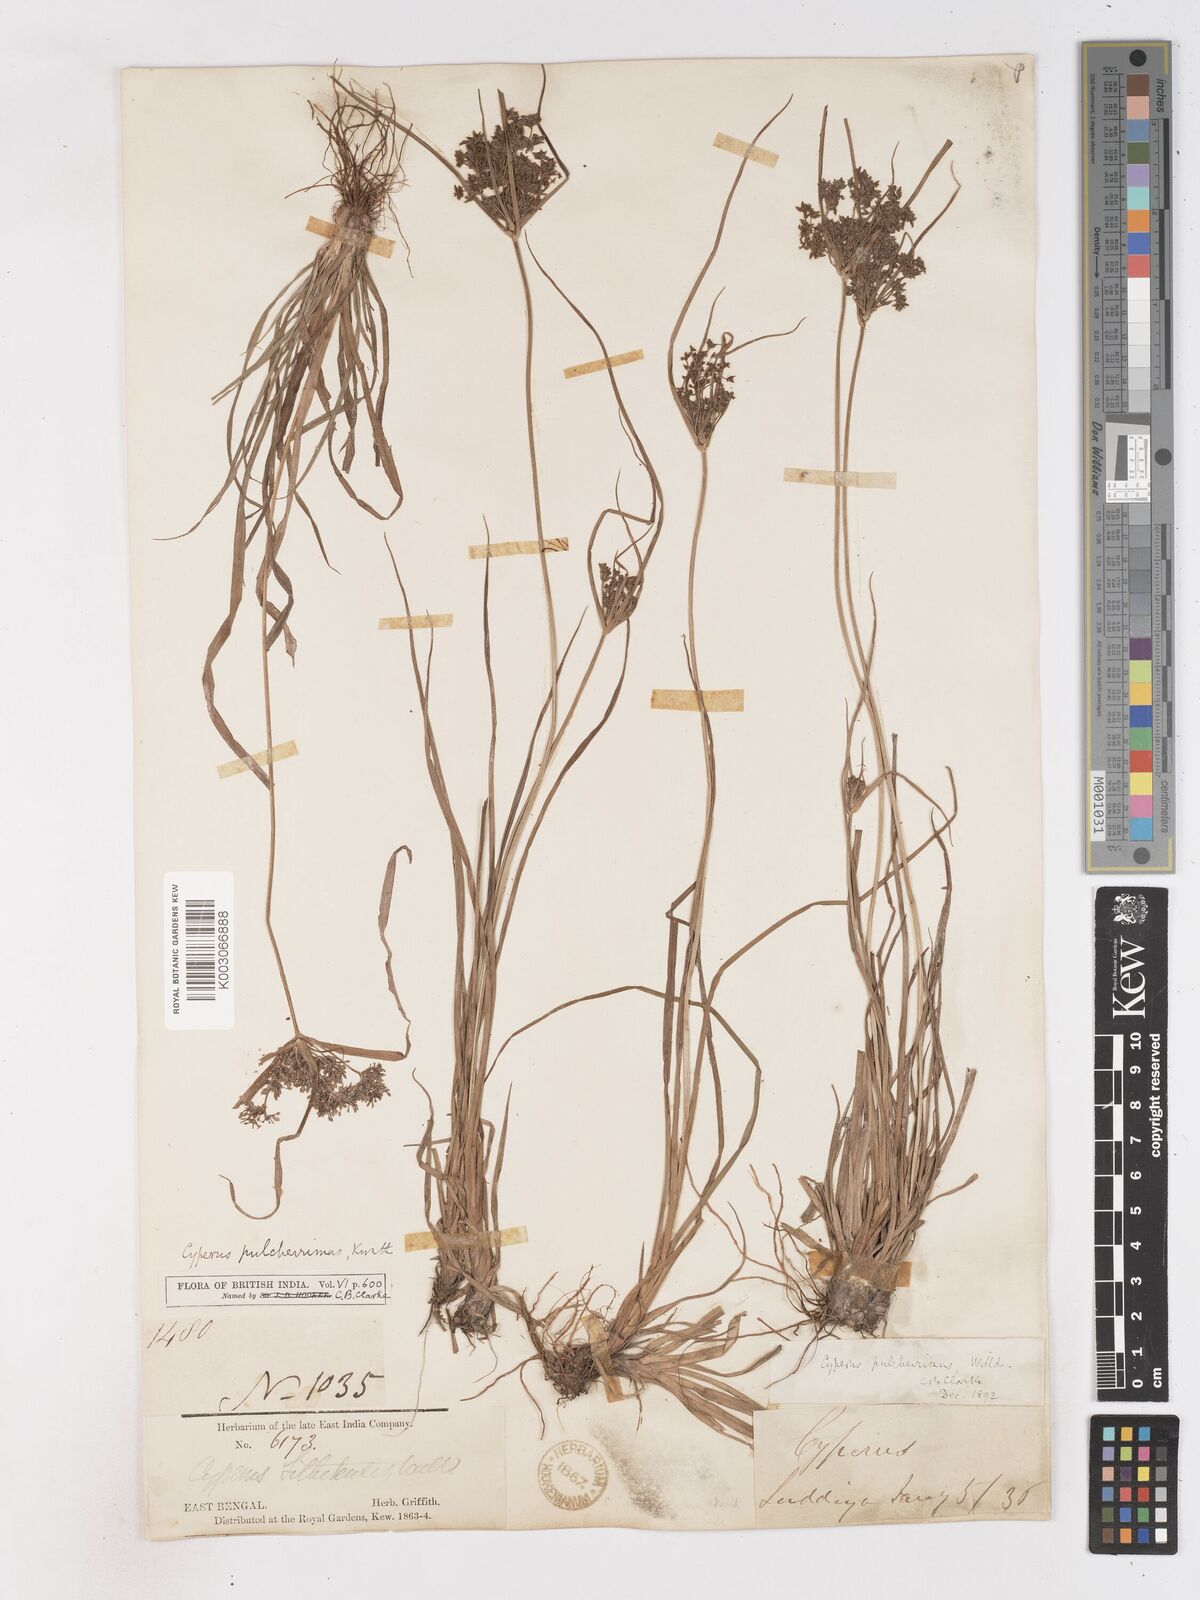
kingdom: Plantae
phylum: Tracheophyta
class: Liliopsida
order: Poales
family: Cyperaceae
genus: Cyperus
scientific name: Cyperus pulcherrimus
